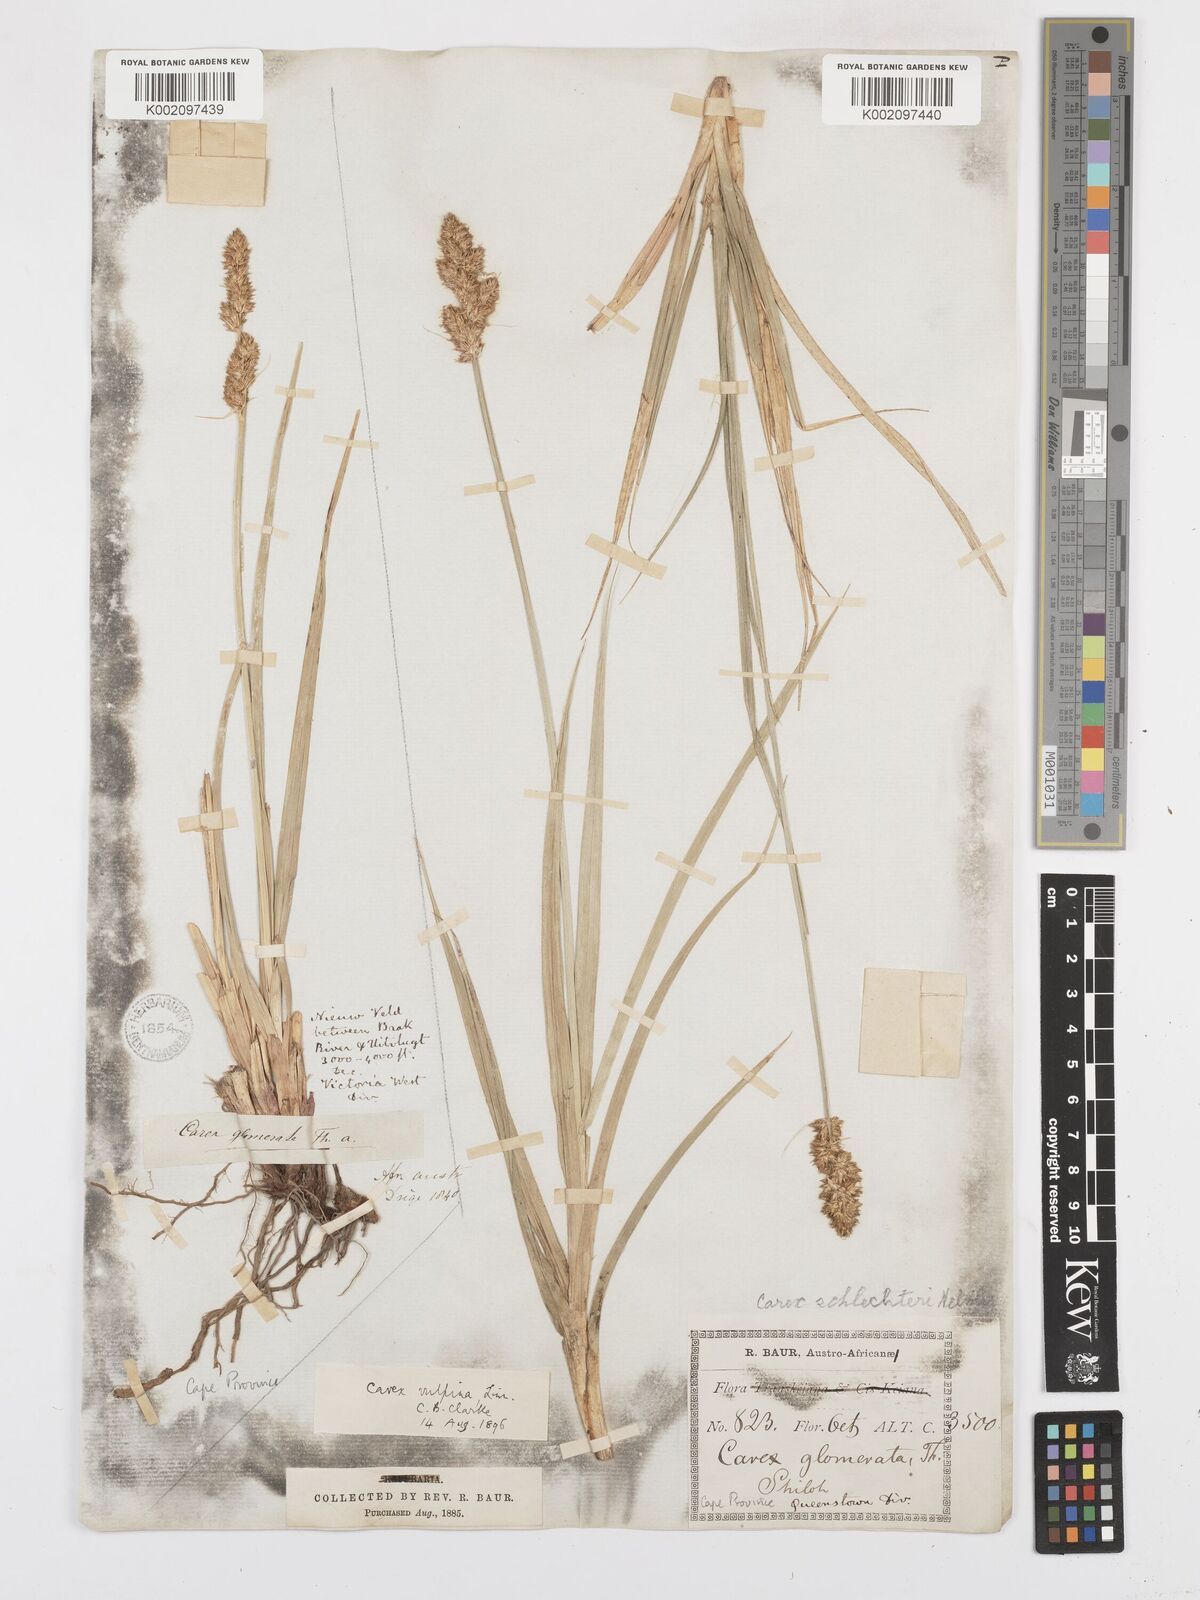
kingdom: Plantae
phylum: Tracheophyta
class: Liliopsida
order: Poales
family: Cyperaceae
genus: Carex
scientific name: Carex glomerata
